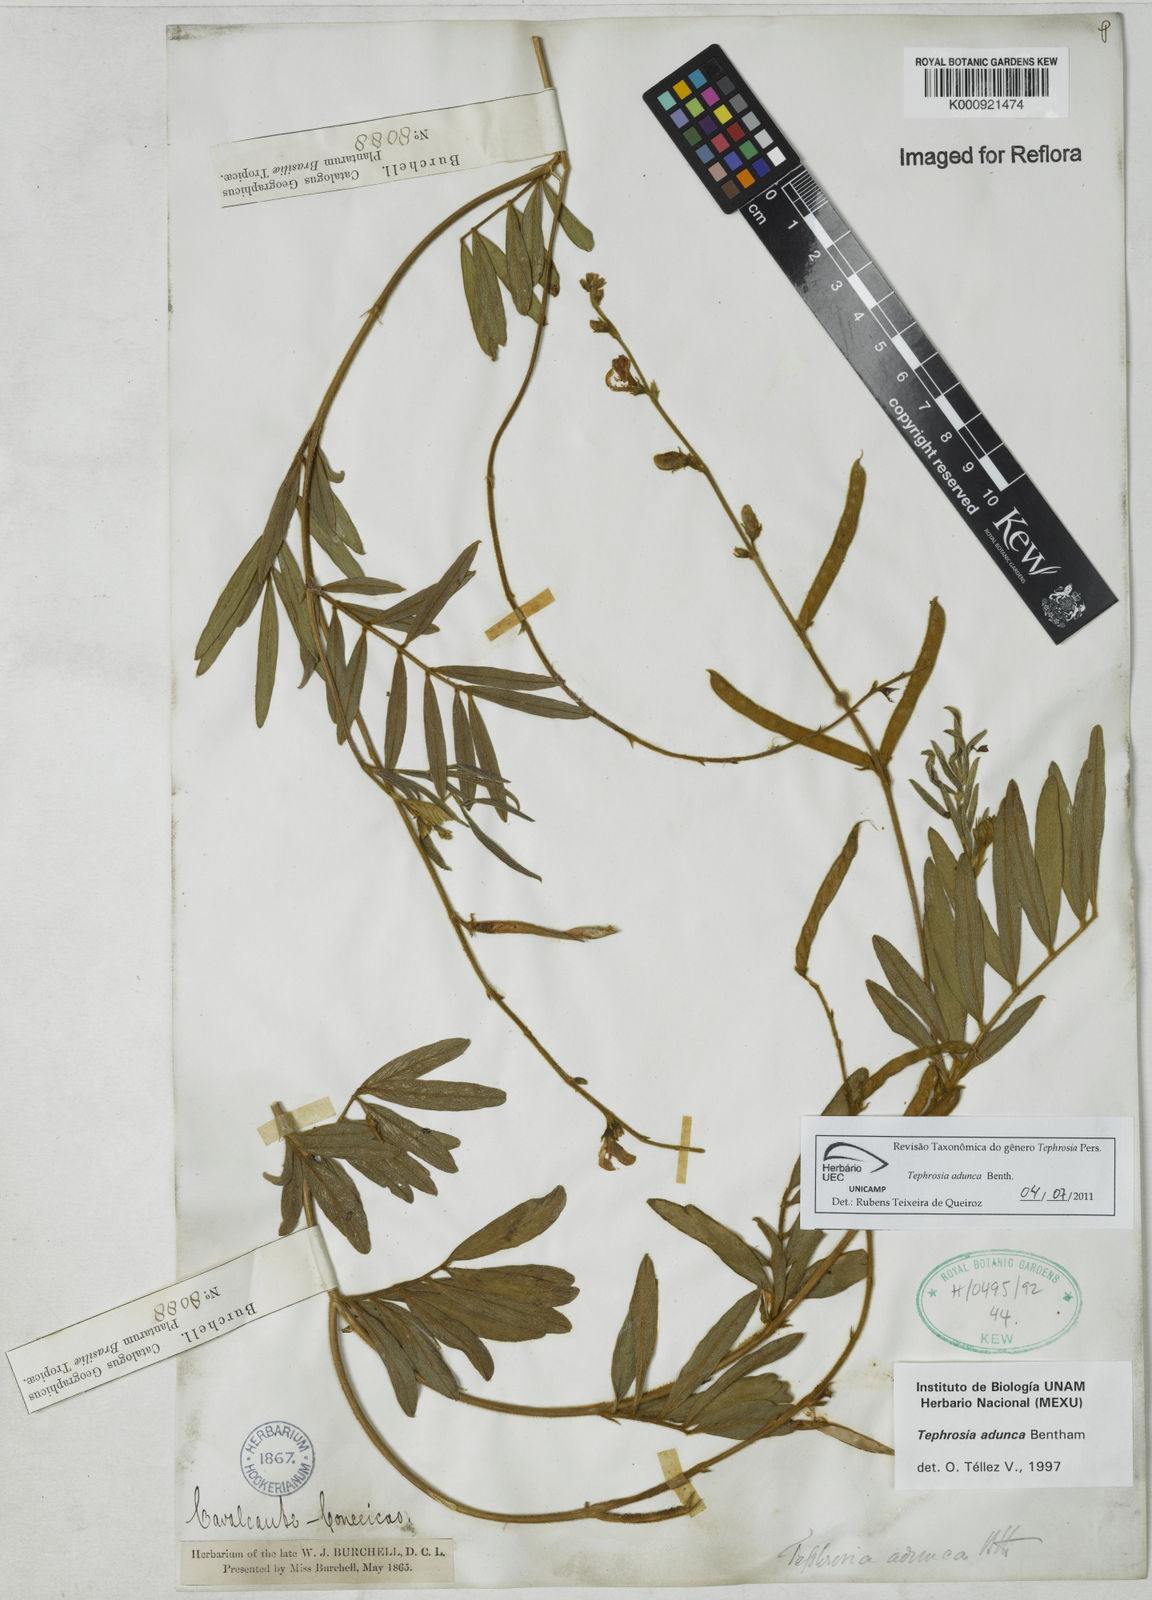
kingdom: Plantae
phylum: Tracheophyta
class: Magnoliopsida
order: Fabales
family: Fabaceae
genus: Tephrosia
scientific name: Tephrosia adunca
